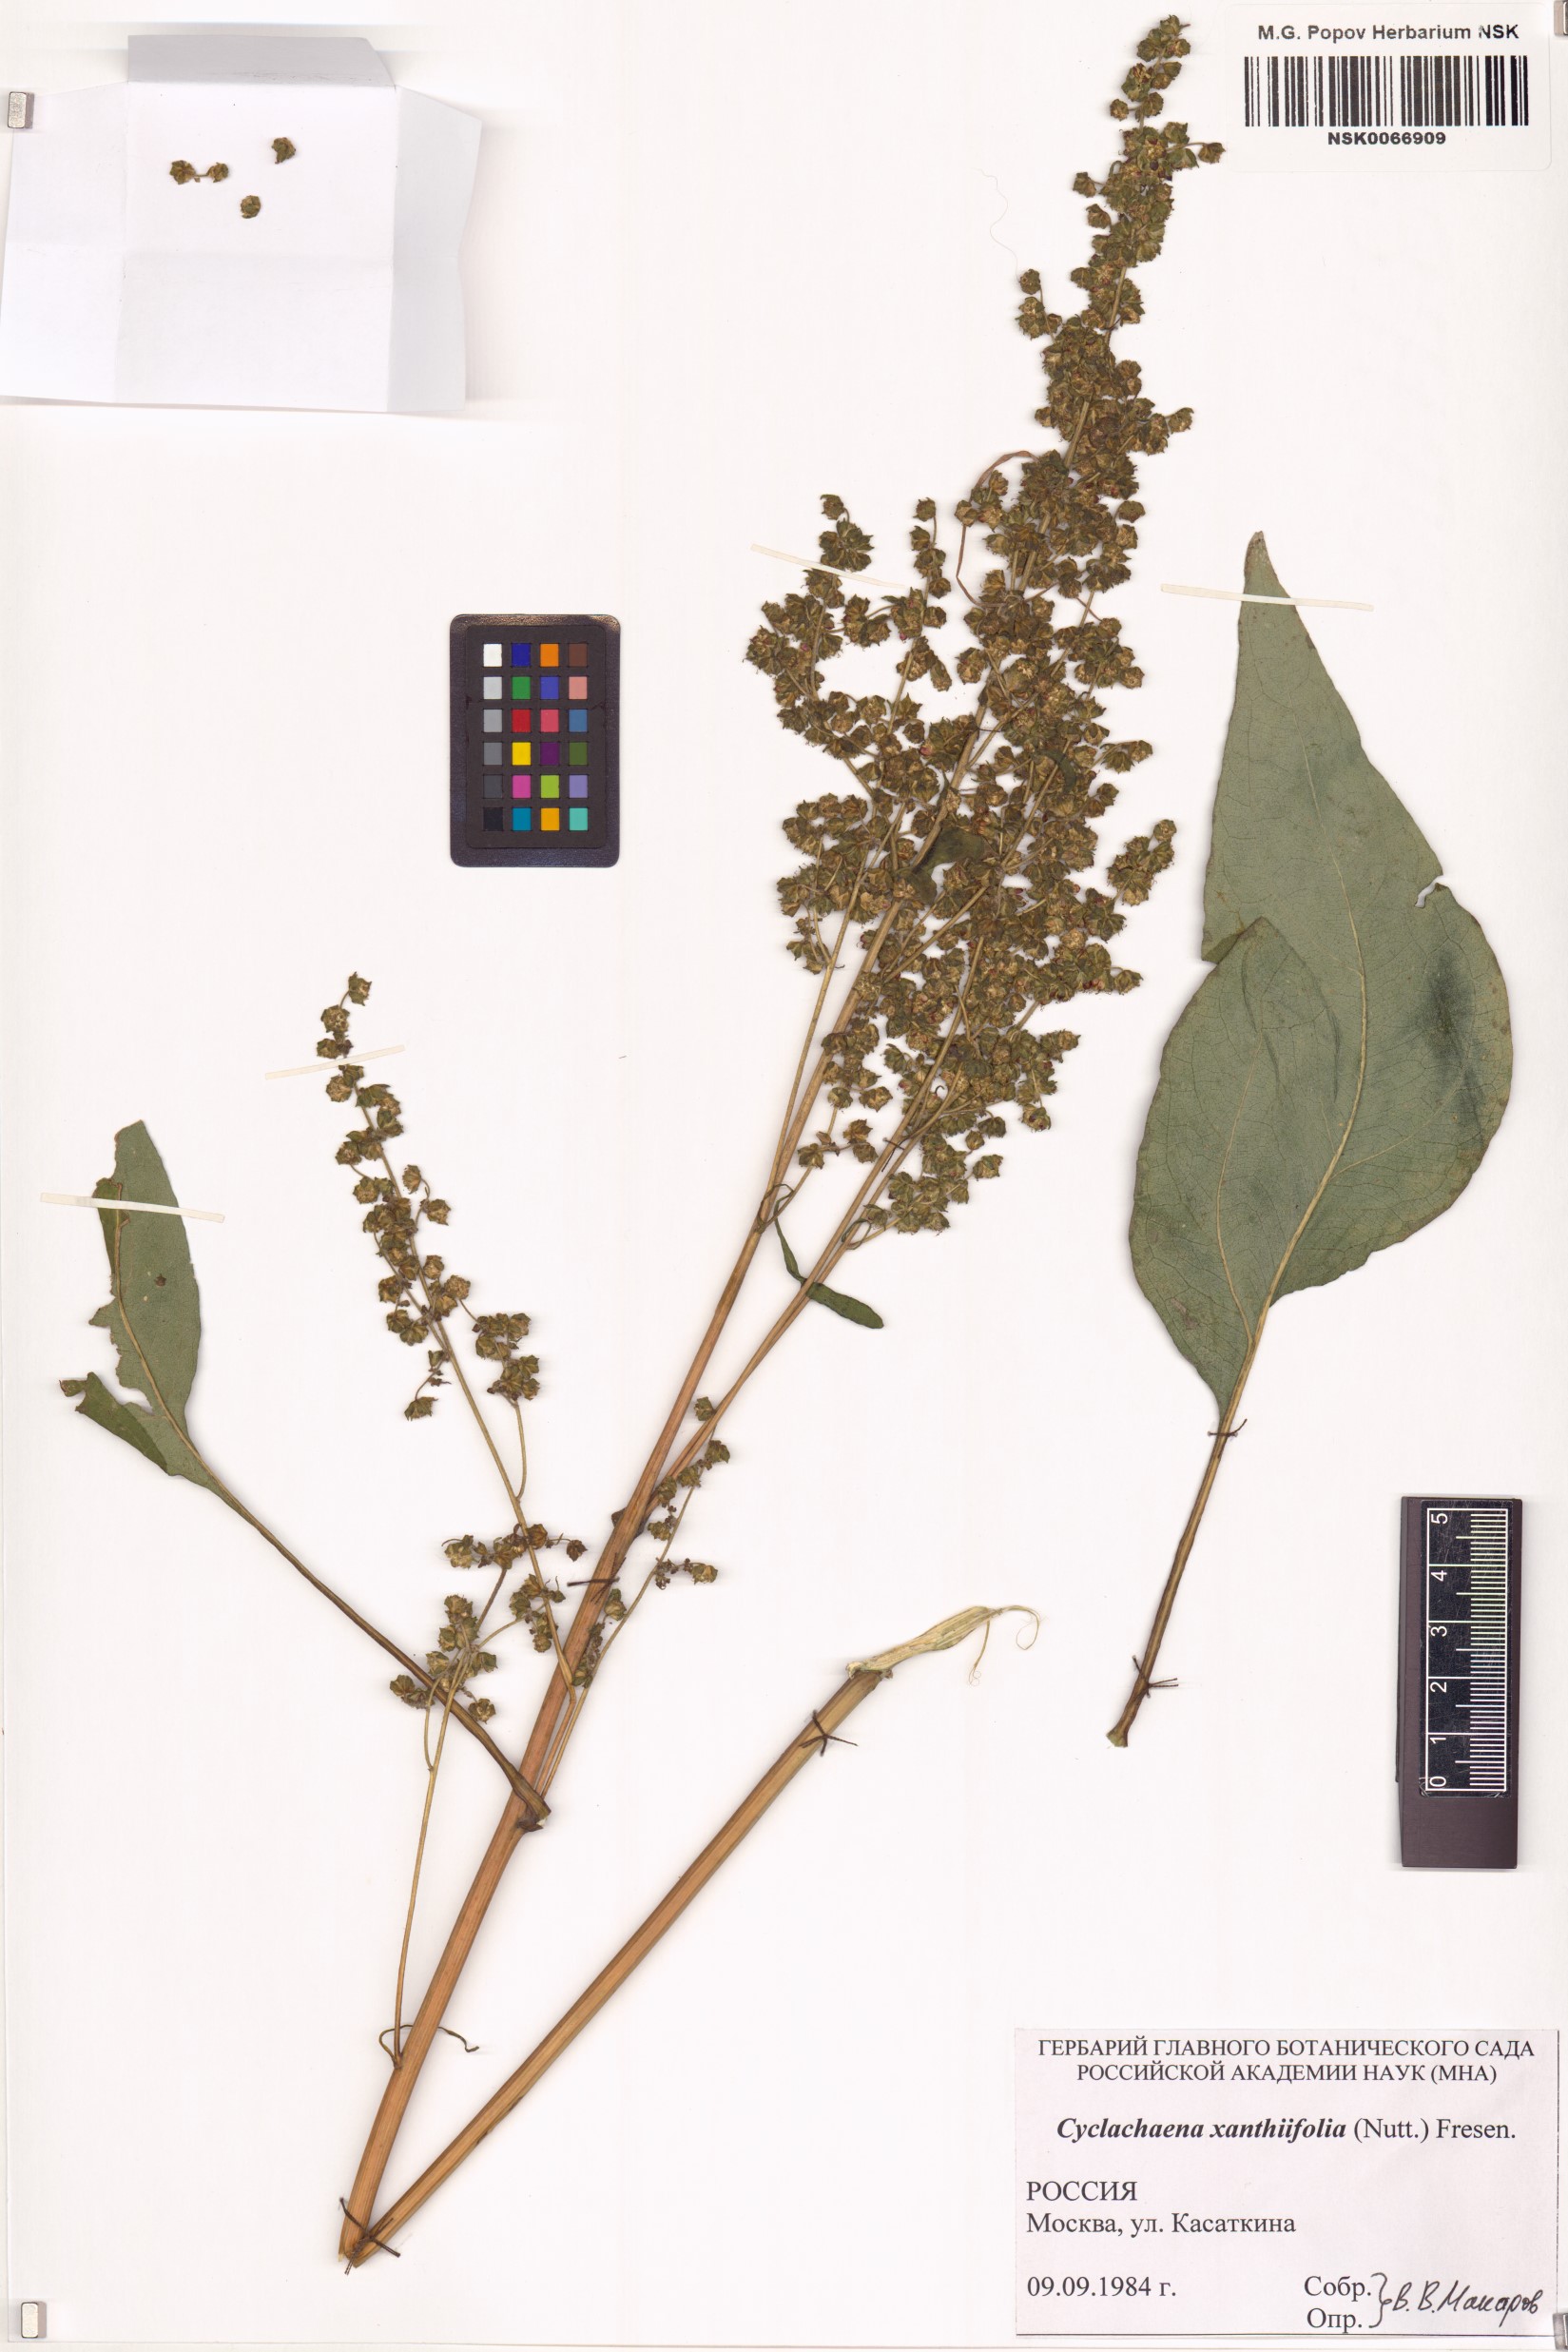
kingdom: Plantae
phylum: Tracheophyta
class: Magnoliopsida
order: Asterales
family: Asteraceae
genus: Cyclachaena
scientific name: Cyclachaena xanthiifolia
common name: Giant sumpweed
